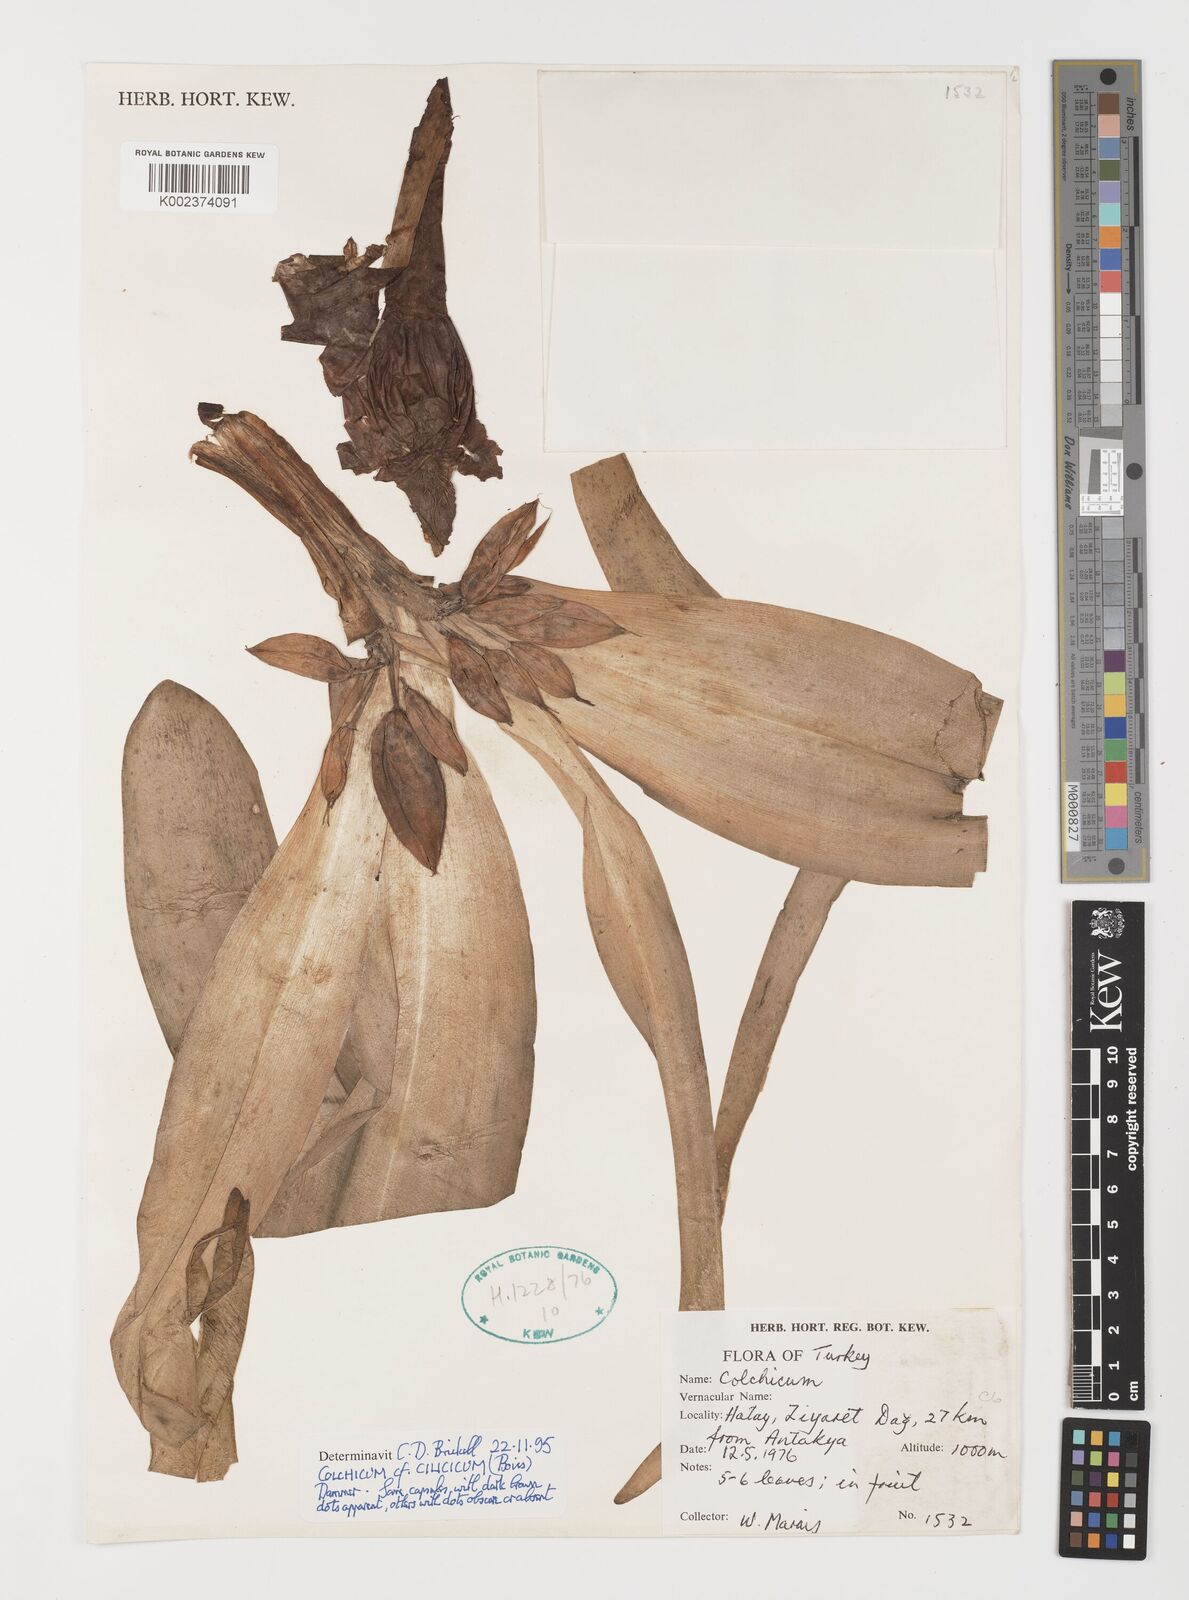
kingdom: Plantae
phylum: Tracheophyta
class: Liliopsida
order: Liliales
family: Colchicaceae
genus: Colchicum
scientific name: Colchicum cilicicum
